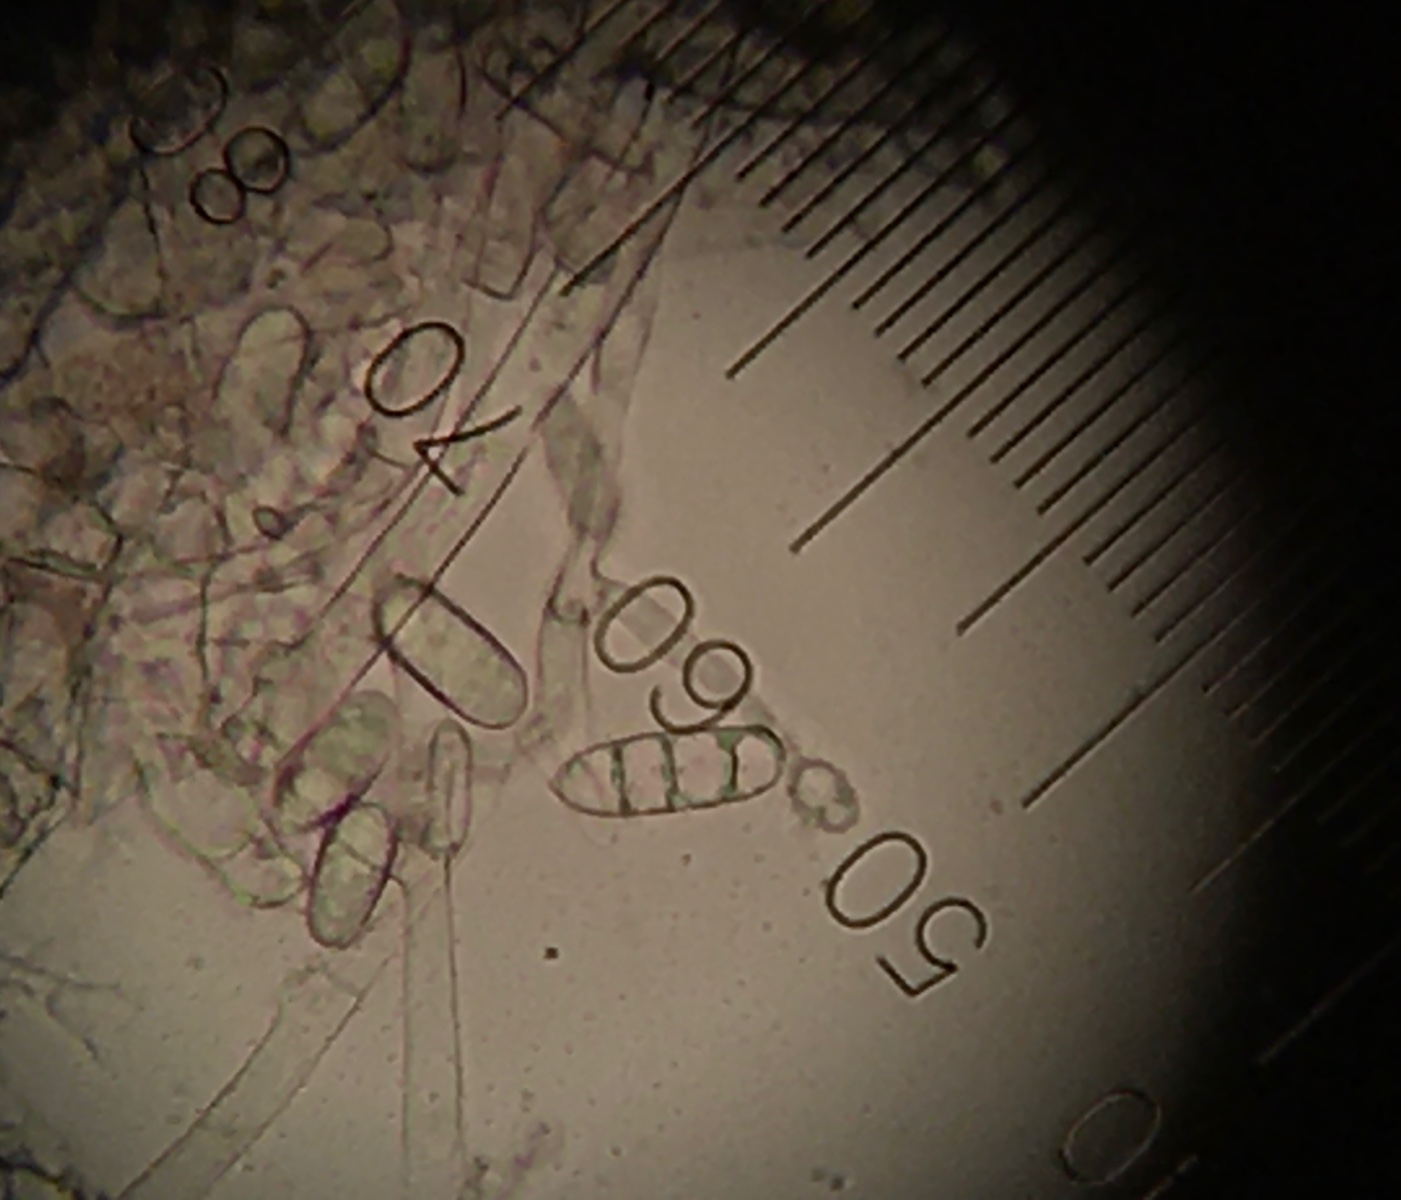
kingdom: Fungi
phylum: Ascomycota
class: Sordariomycetes
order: Hypocreales
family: Hypocreaceae
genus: Hypomyces
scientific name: Hypomyces rosellus
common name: rosa snylteskorpe
